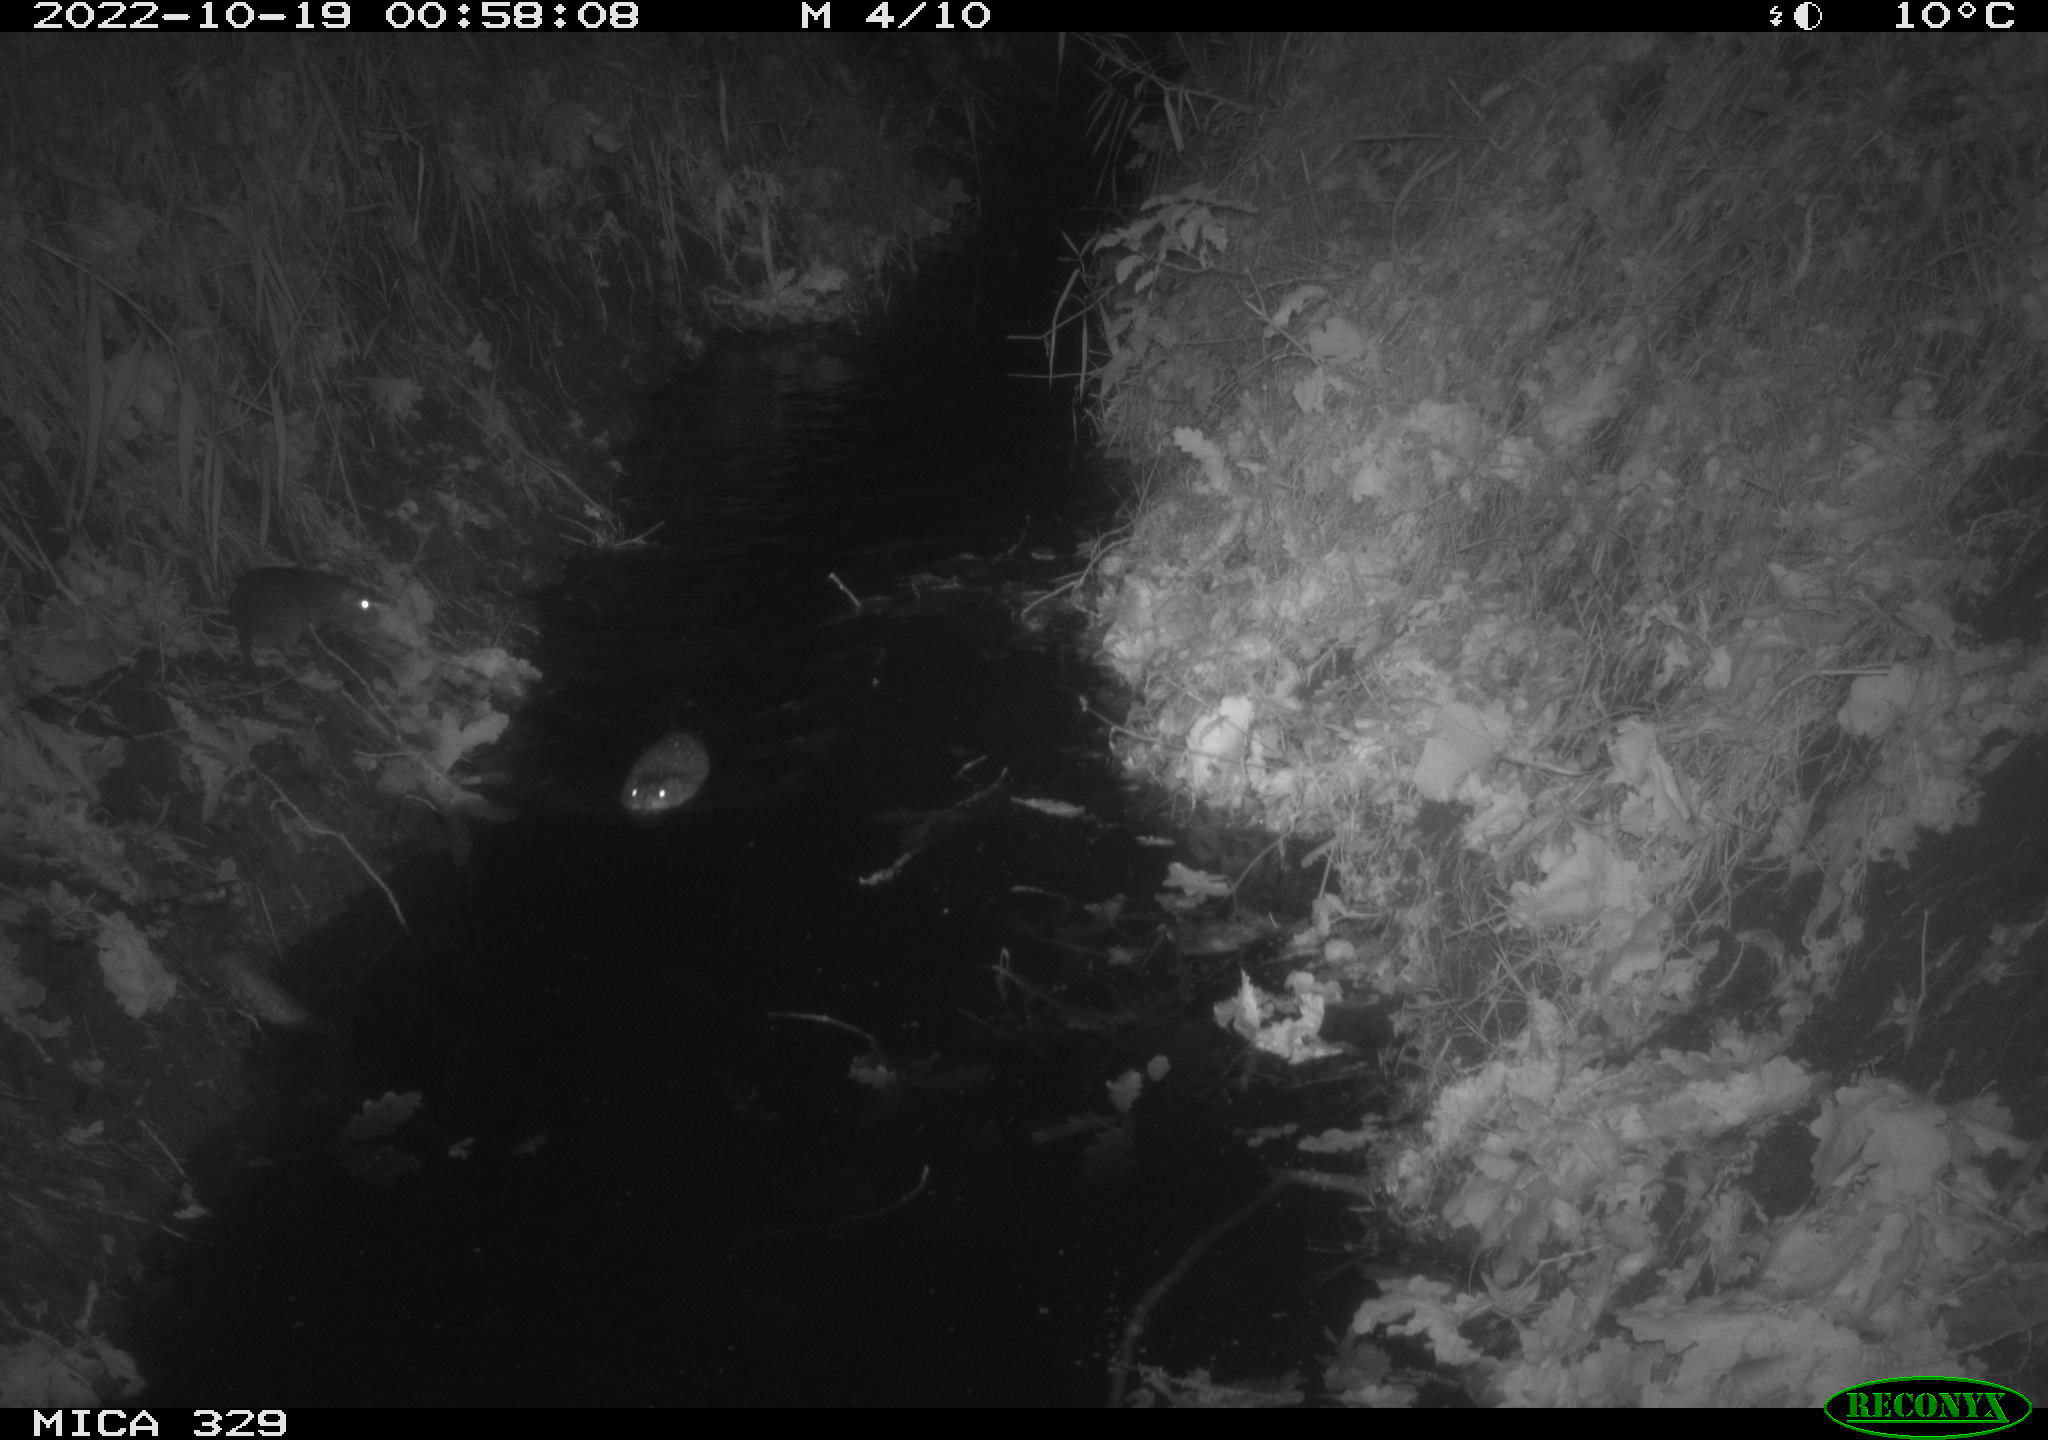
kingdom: Animalia
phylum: Chordata
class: Mammalia
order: Rodentia
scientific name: Rodentia
